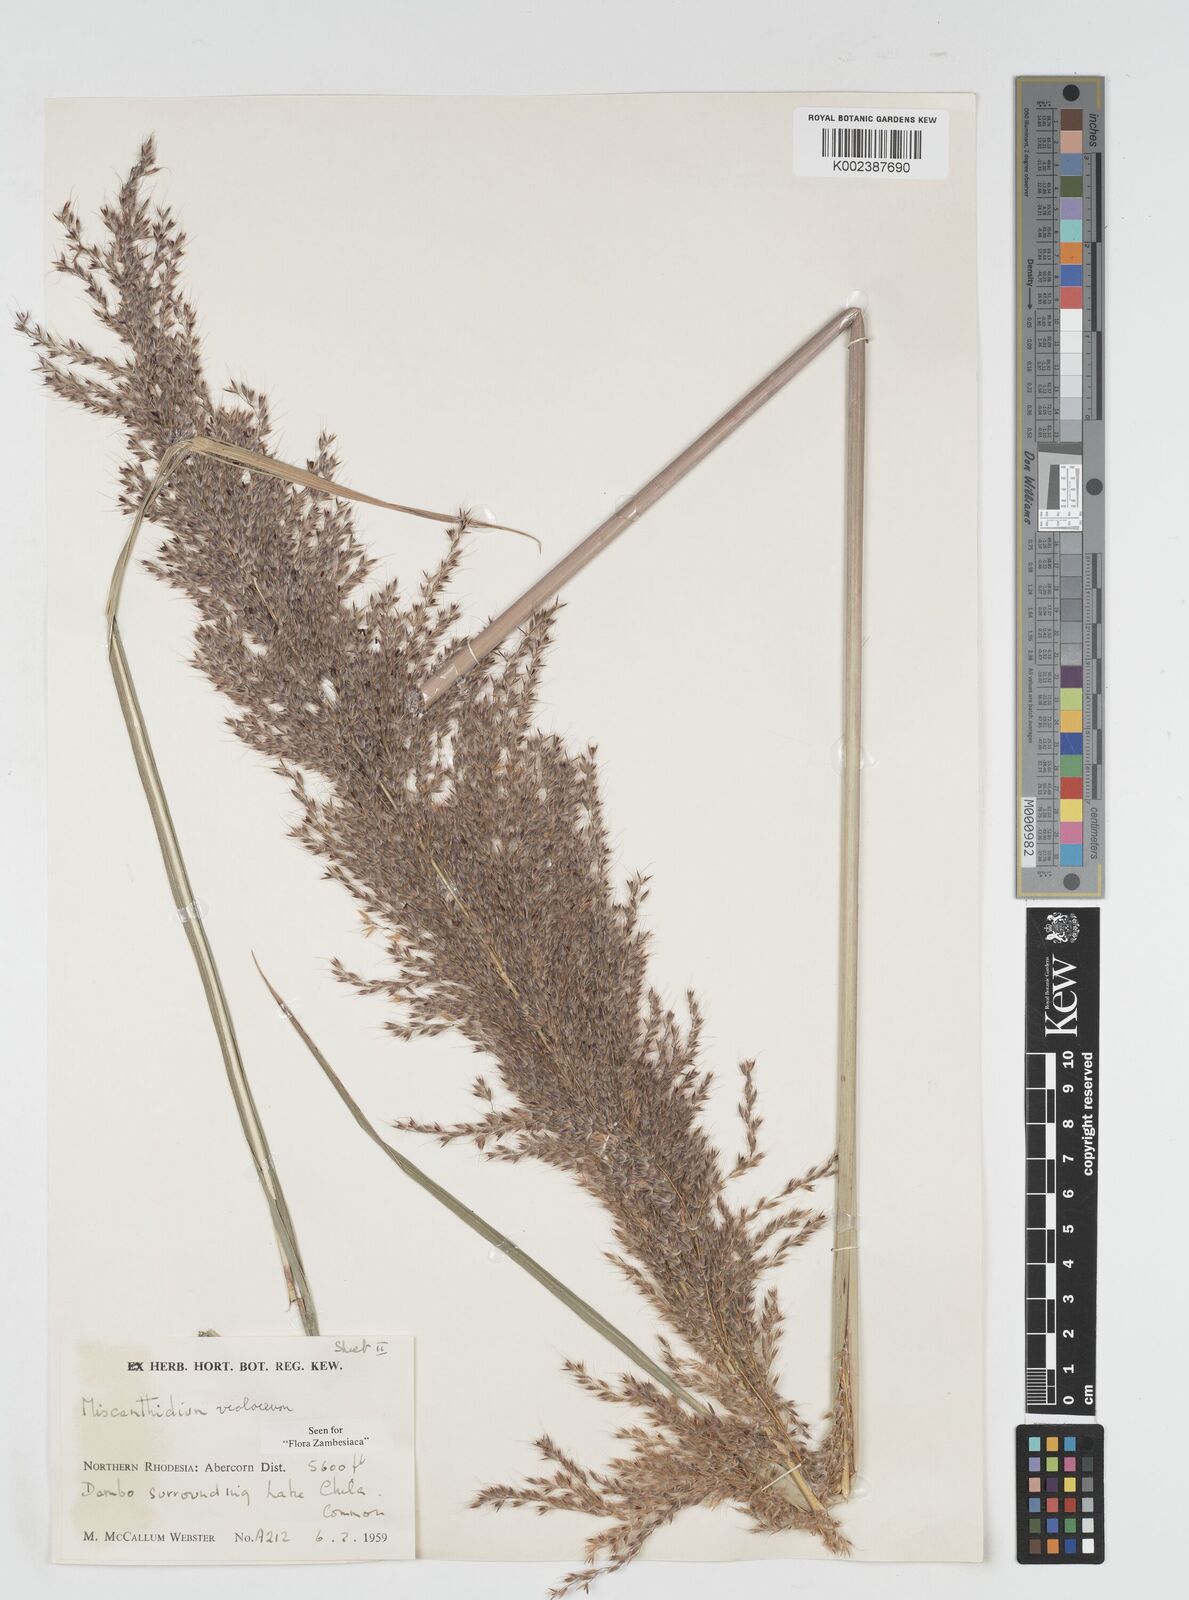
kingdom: Plantae
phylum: Tracheophyta
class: Liliopsida
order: Poales
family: Poaceae
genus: Miscanthidium
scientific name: Miscanthidium violaceum
